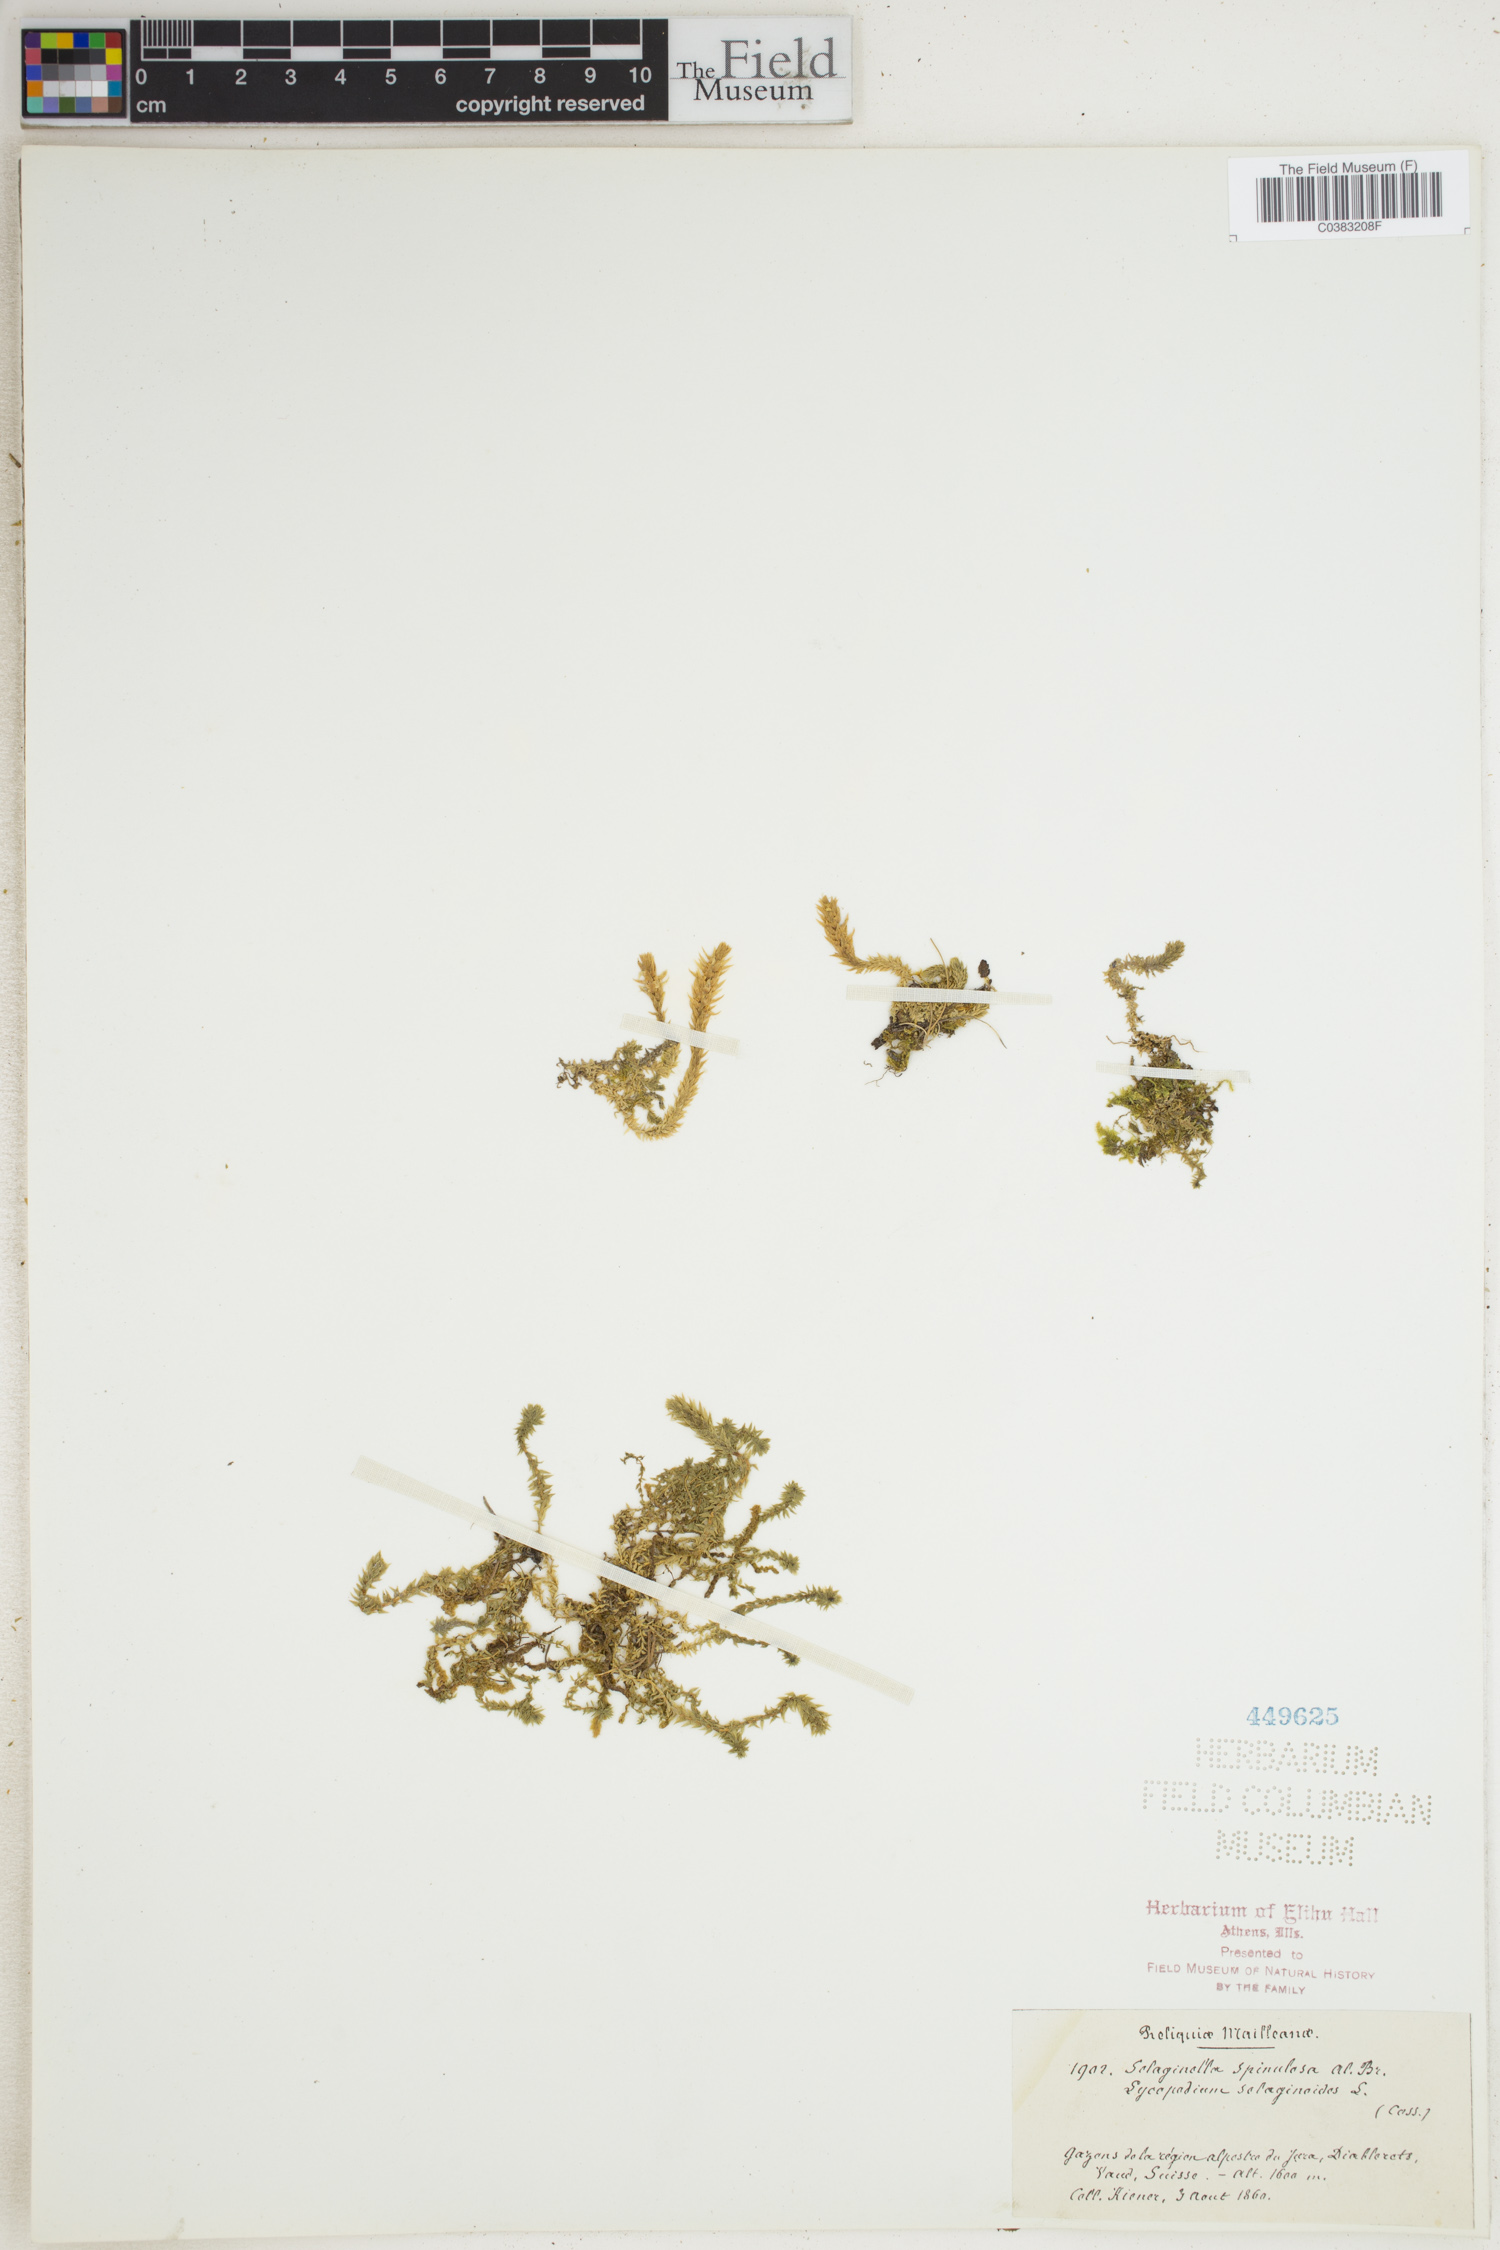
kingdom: Plantae
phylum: Tracheophyta
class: Lycopodiopsida
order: Selaginellales
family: Selaginellaceae
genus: Selaginella
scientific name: Selaginella selaginoides
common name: Prickly mountain-moss
